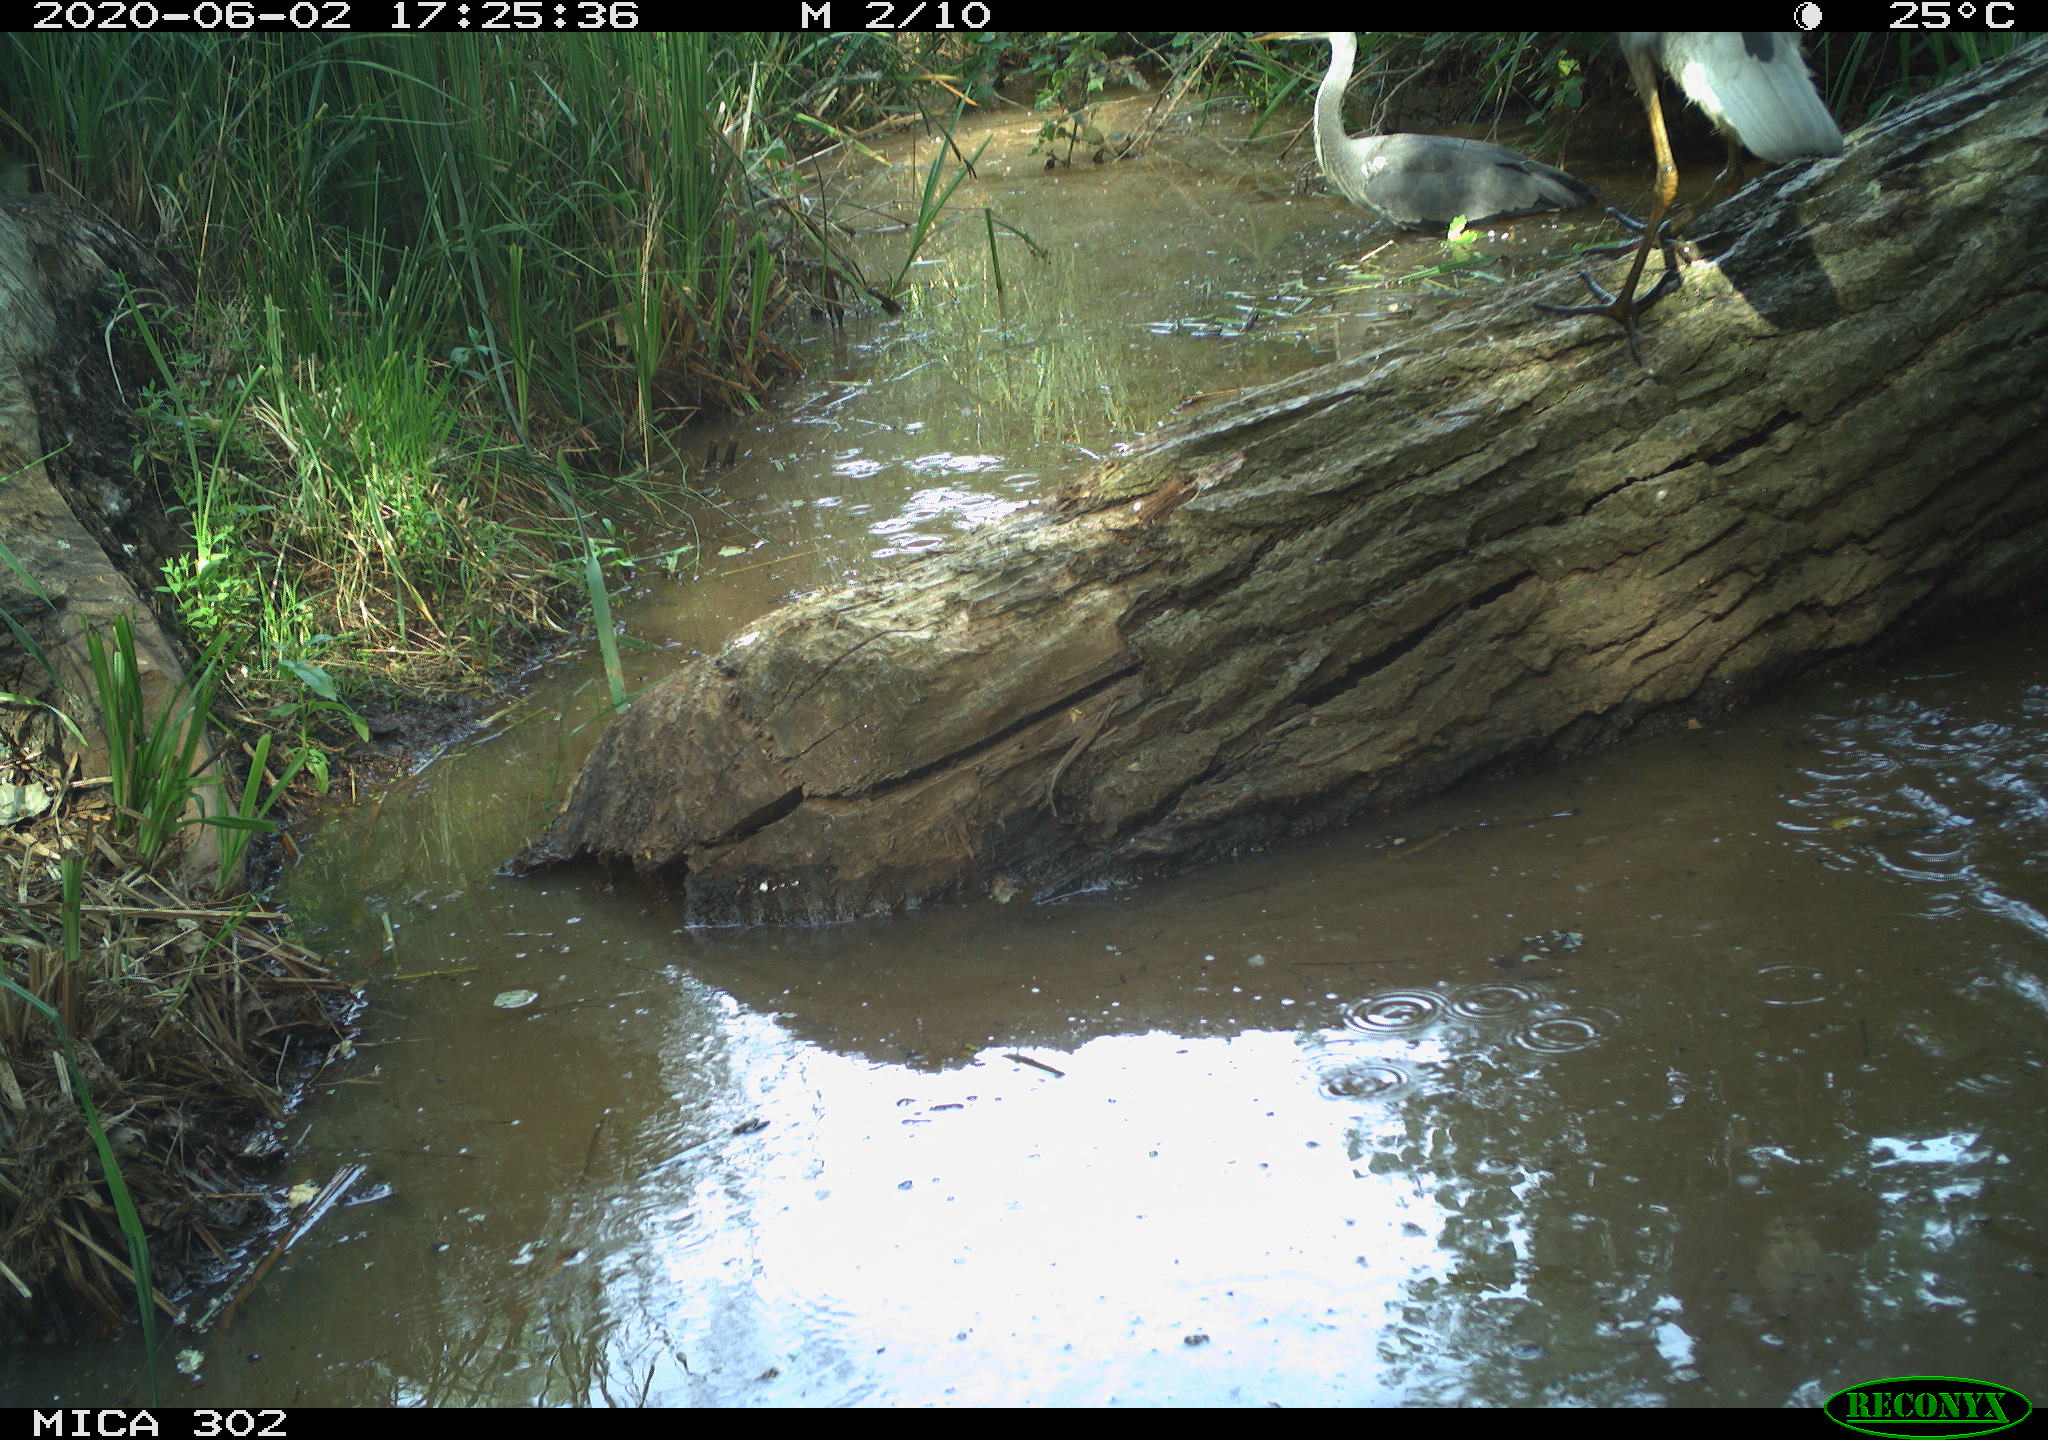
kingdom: Animalia
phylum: Chordata
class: Aves
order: Pelecaniformes
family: Ardeidae
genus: Ardea
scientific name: Ardea cinerea
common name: Grey heron
